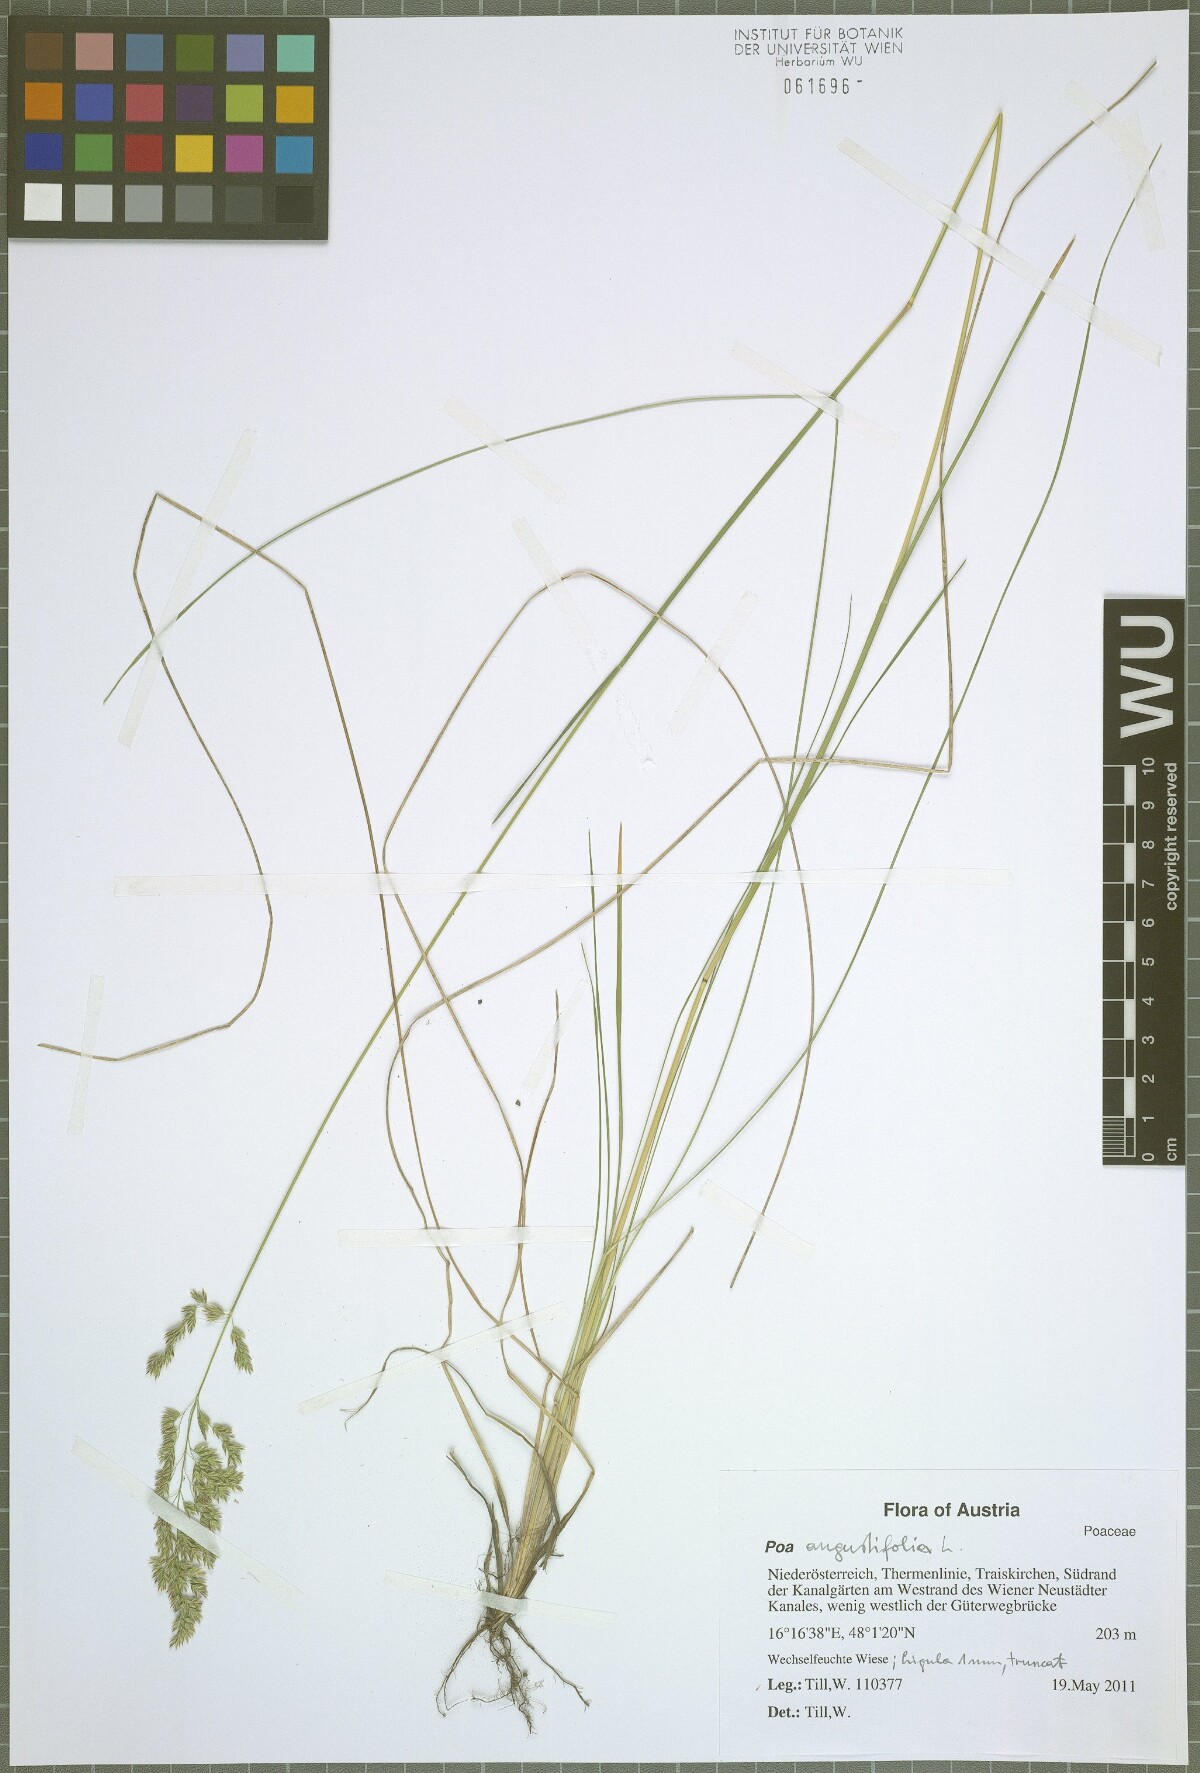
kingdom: Plantae
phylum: Tracheophyta
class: Liliopsida
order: Poales
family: Poaceae
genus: Poa
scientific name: Poa angustifolia
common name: Narrow-leaved meadow-grass
